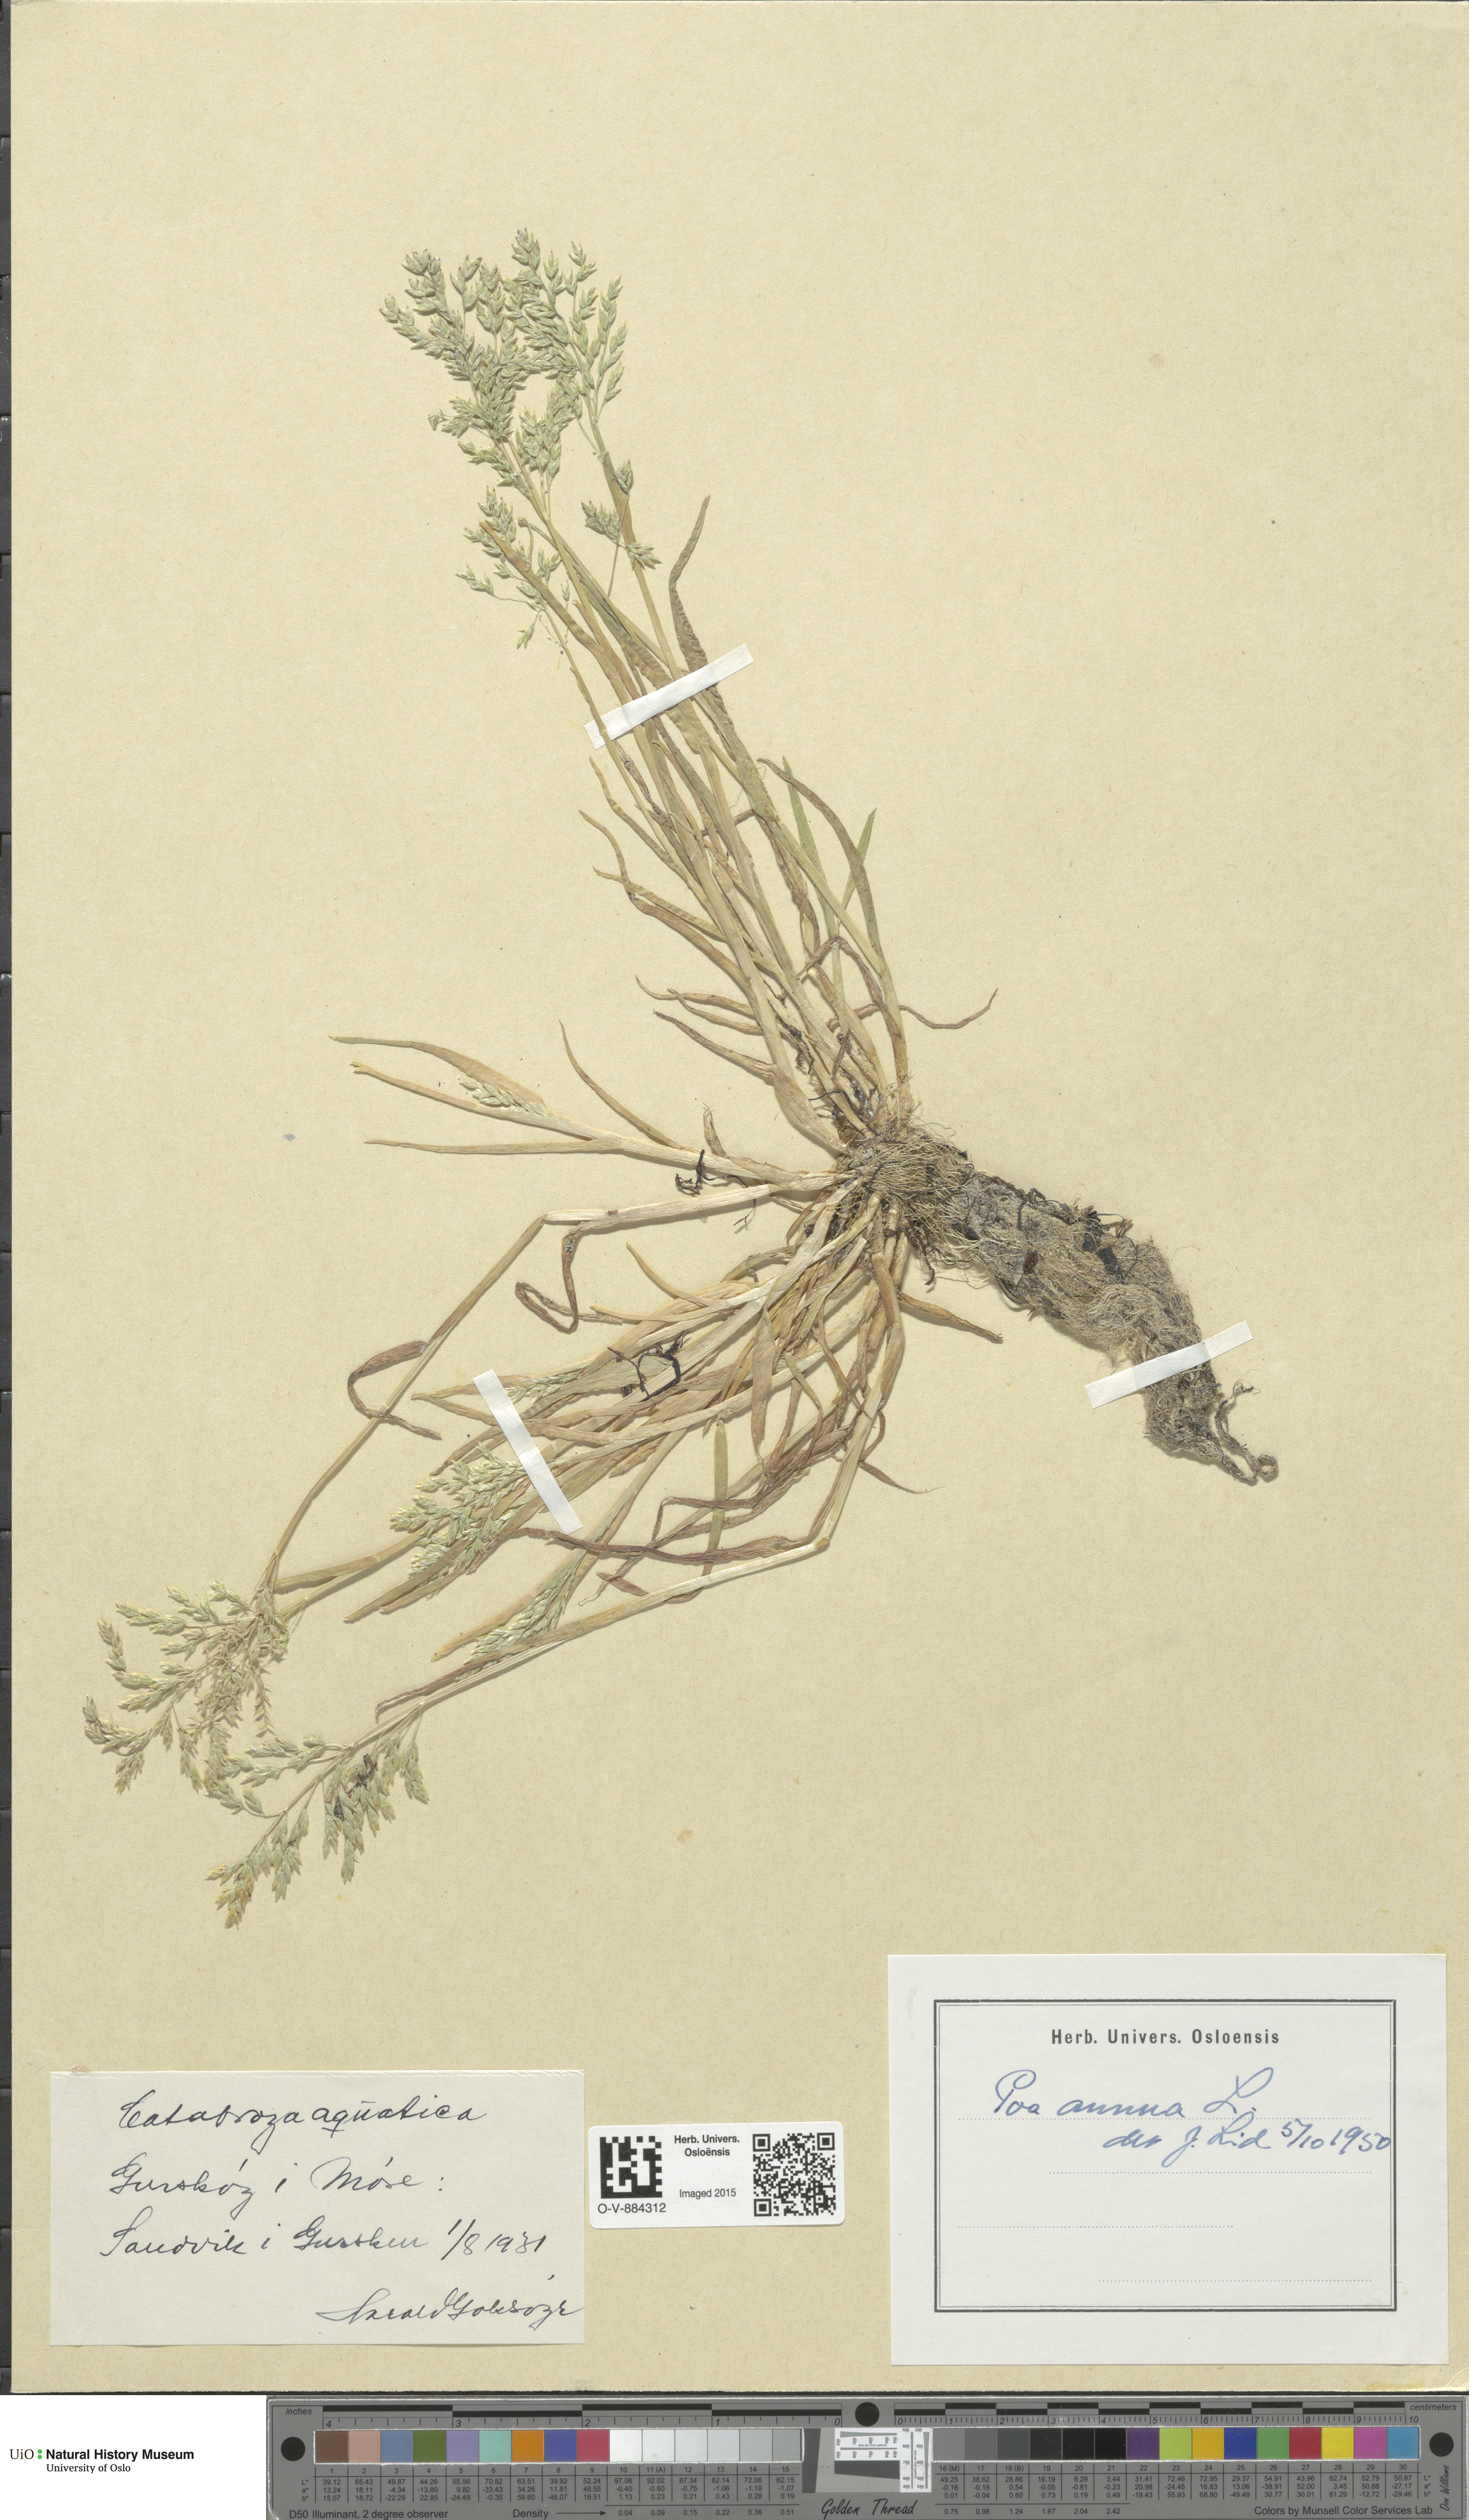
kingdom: Plantae
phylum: Tracheophyta
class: Liliopsida
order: Poales
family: Poaceae
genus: Poa
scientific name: Poa annua
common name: Annual bluegrass
